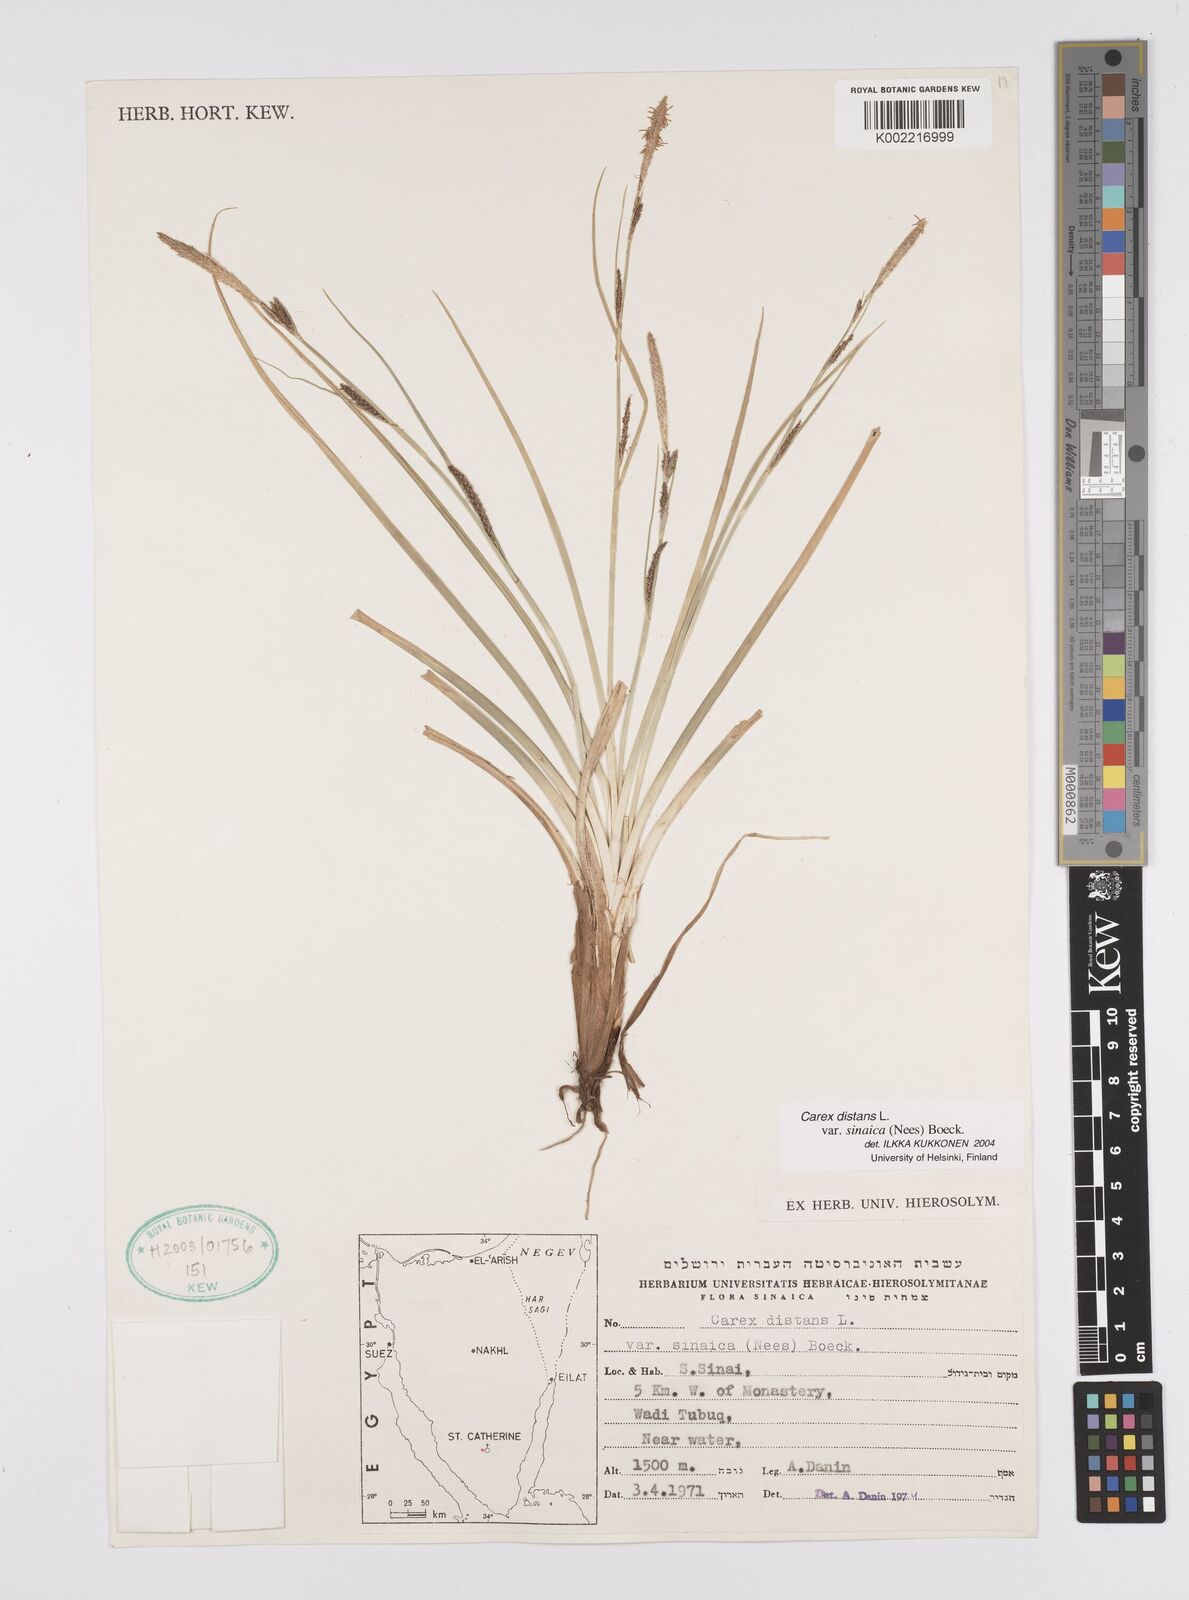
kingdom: Plantae
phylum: Tracheophyta
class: Liliopsida
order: Poales
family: Cyperaceae
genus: Carex
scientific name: Carex distans
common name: Distant sedge
